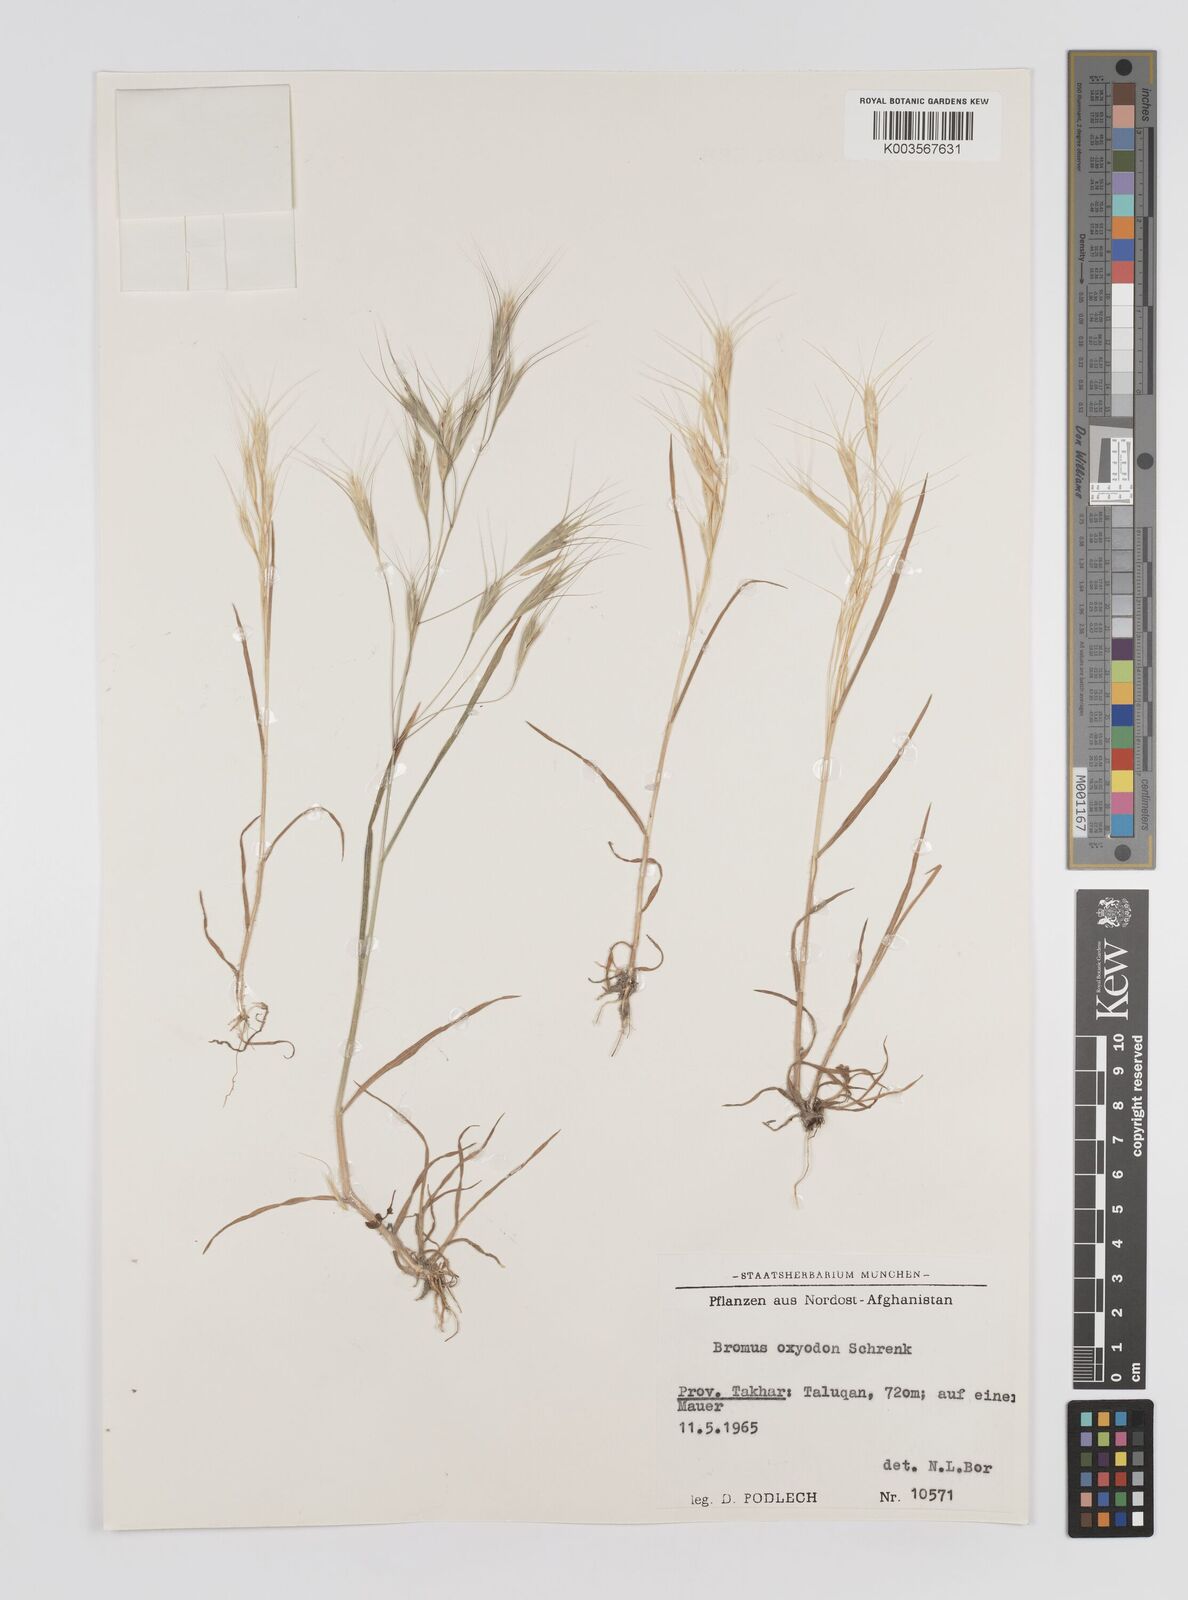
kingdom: Plantae
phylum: Tracheophyta
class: Liliopsida
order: Poales
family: Poaceae
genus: Bromus
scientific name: Bromus oxyodon
